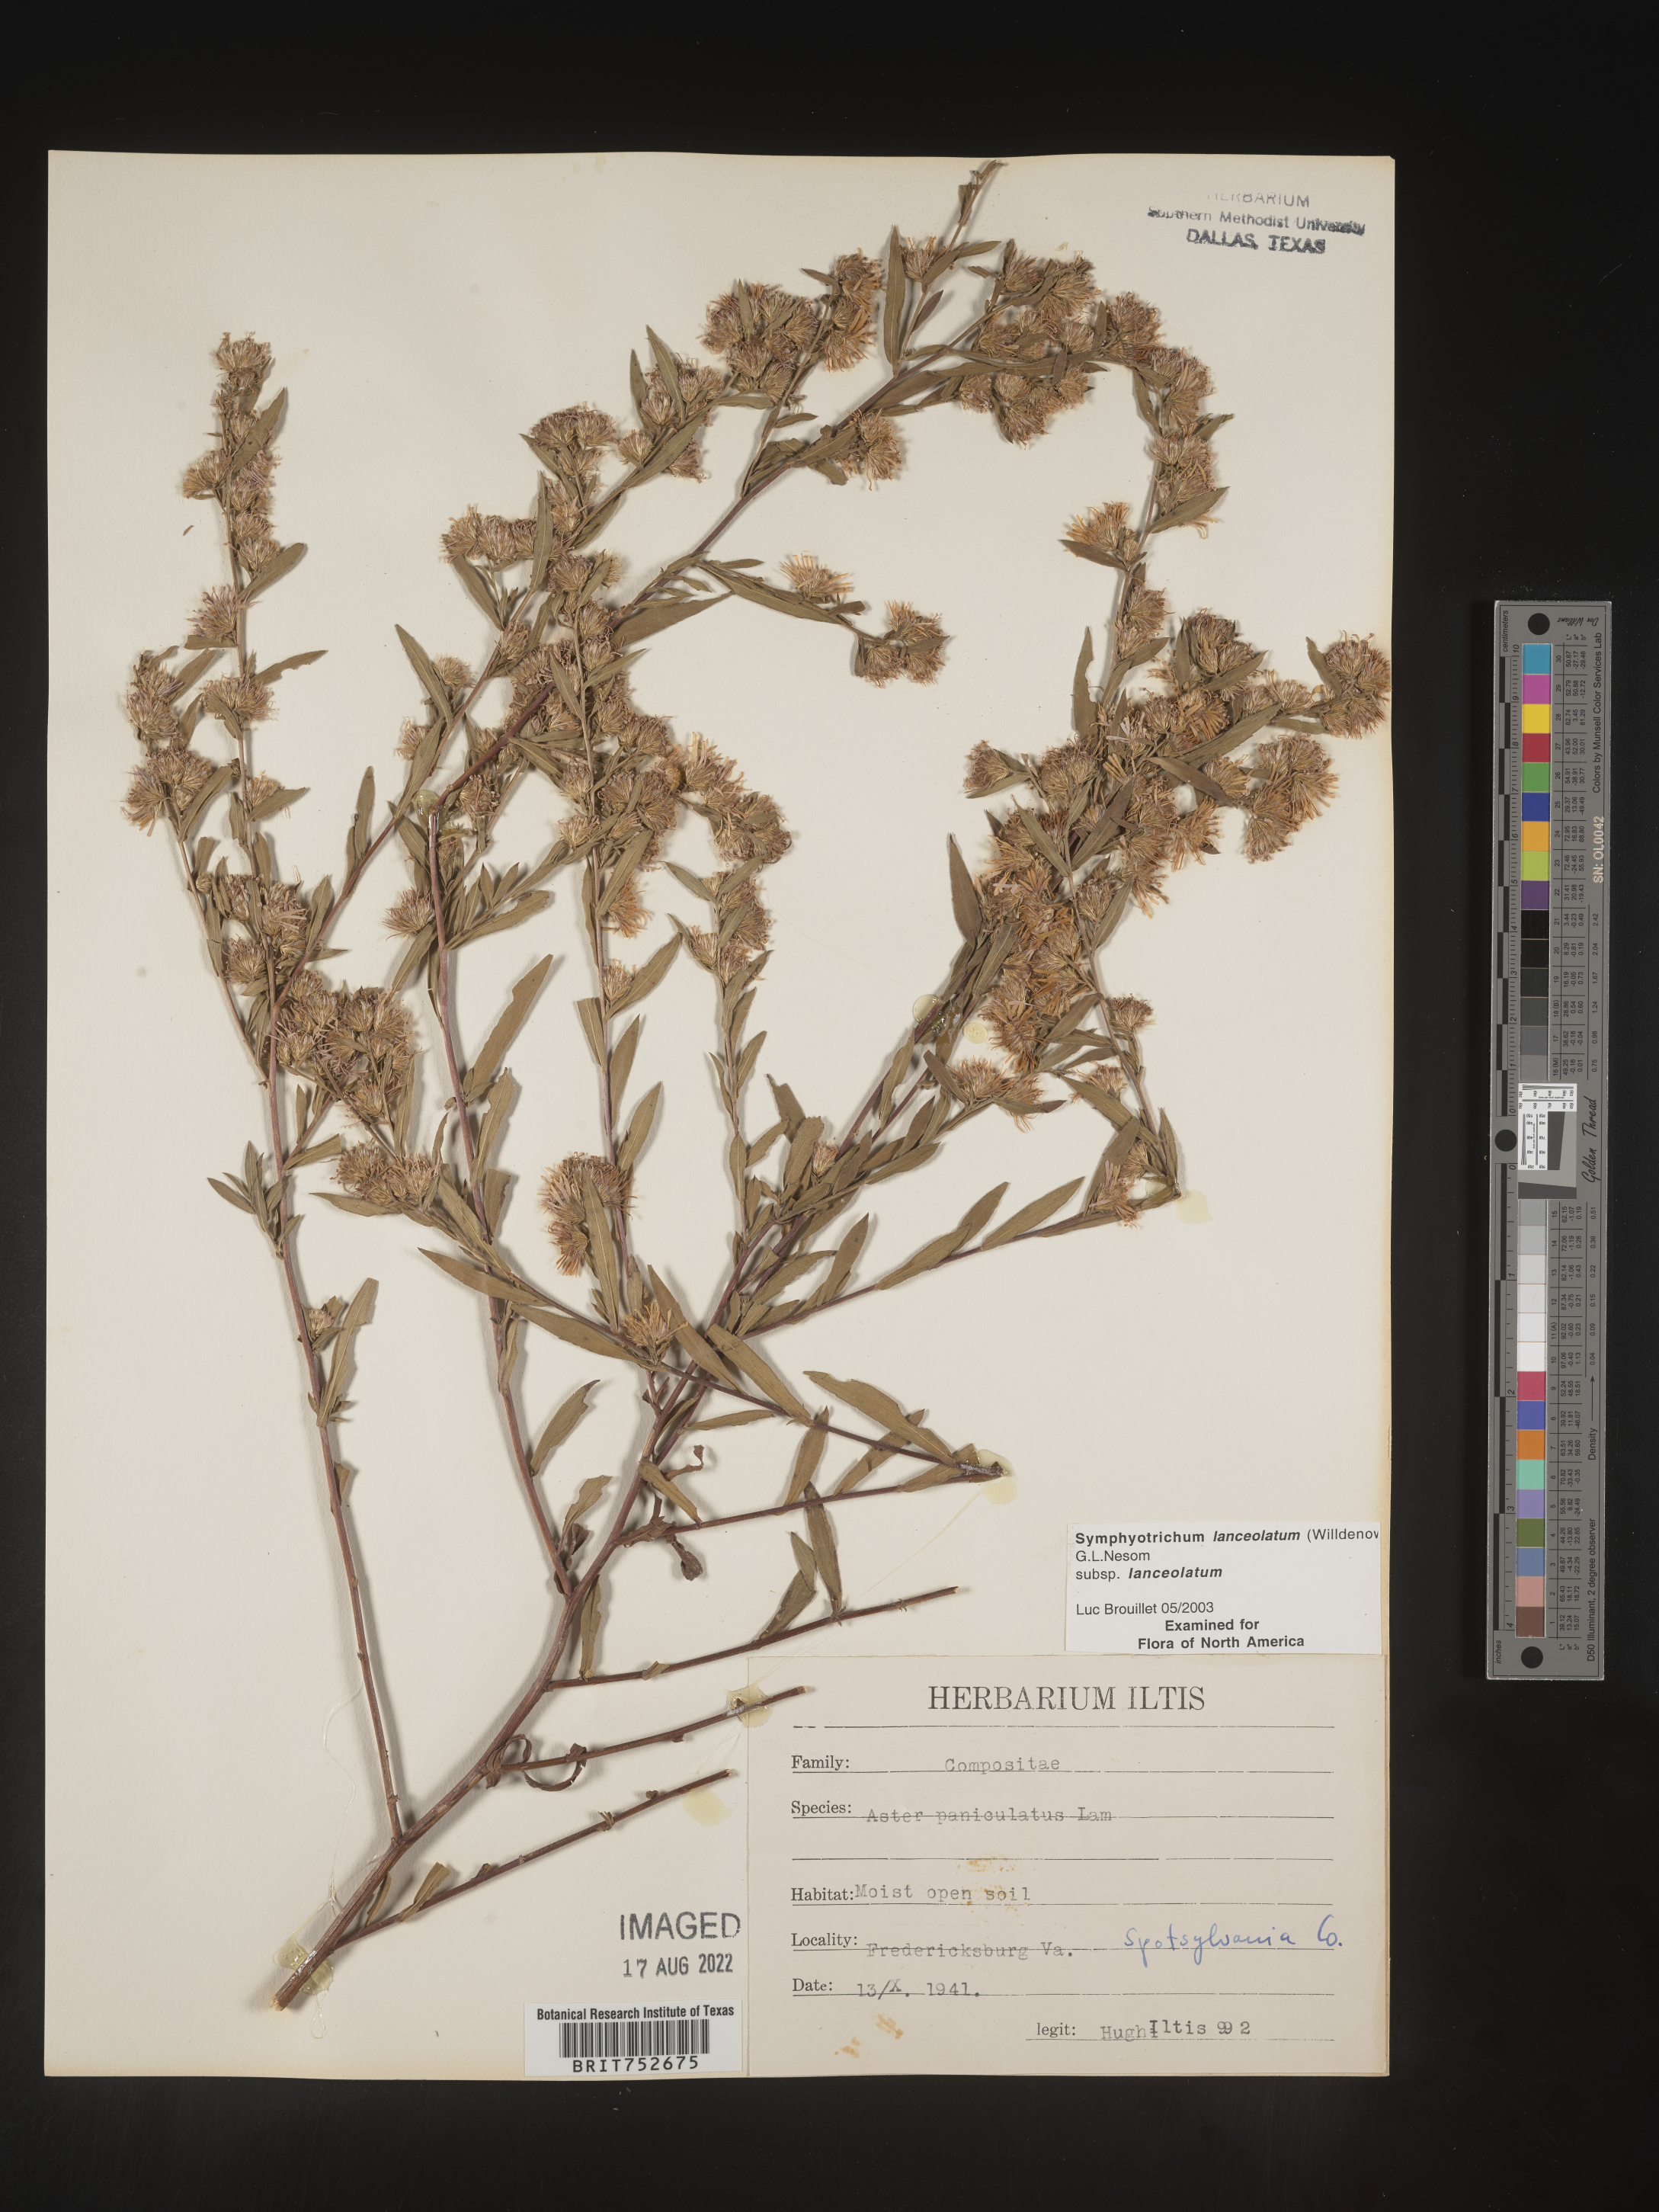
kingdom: Plantae
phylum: Tracheophyta
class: Magnoliopsida
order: Asterales
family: Asteraceae
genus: Symphyotrichum
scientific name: Symphyotrichum lanceolatum
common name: Panicled aster
